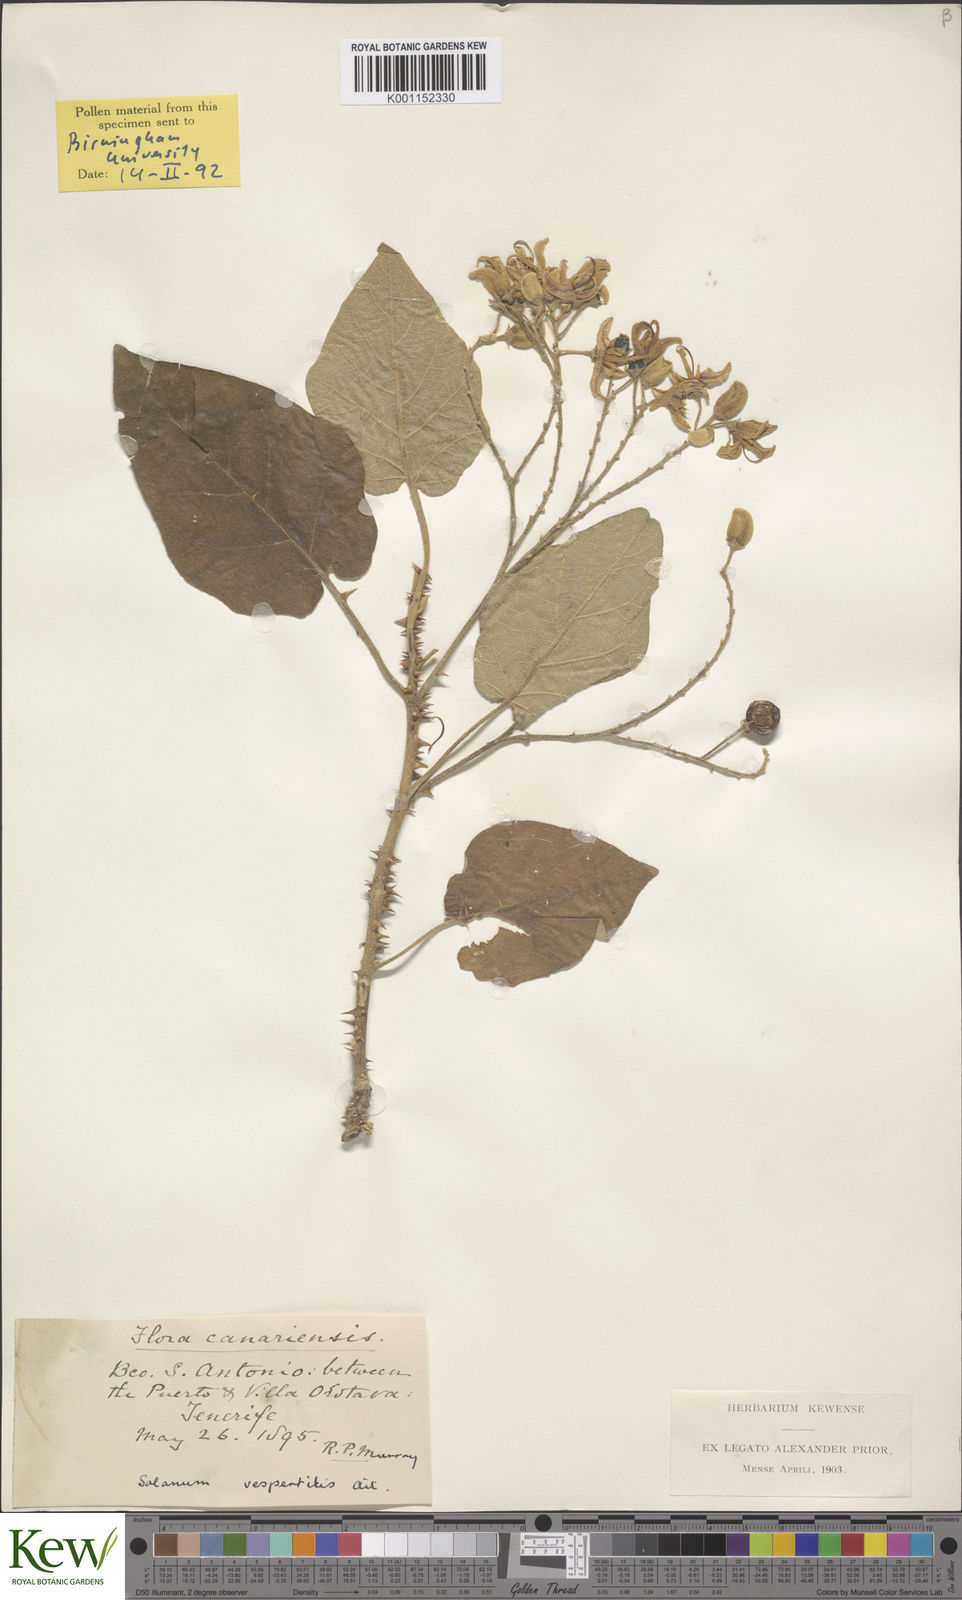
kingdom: Plantae
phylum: Tracheophyta
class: Magnoliopsida
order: Solanales
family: Solanaceae
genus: Solanum
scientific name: Solanum vespertilio
